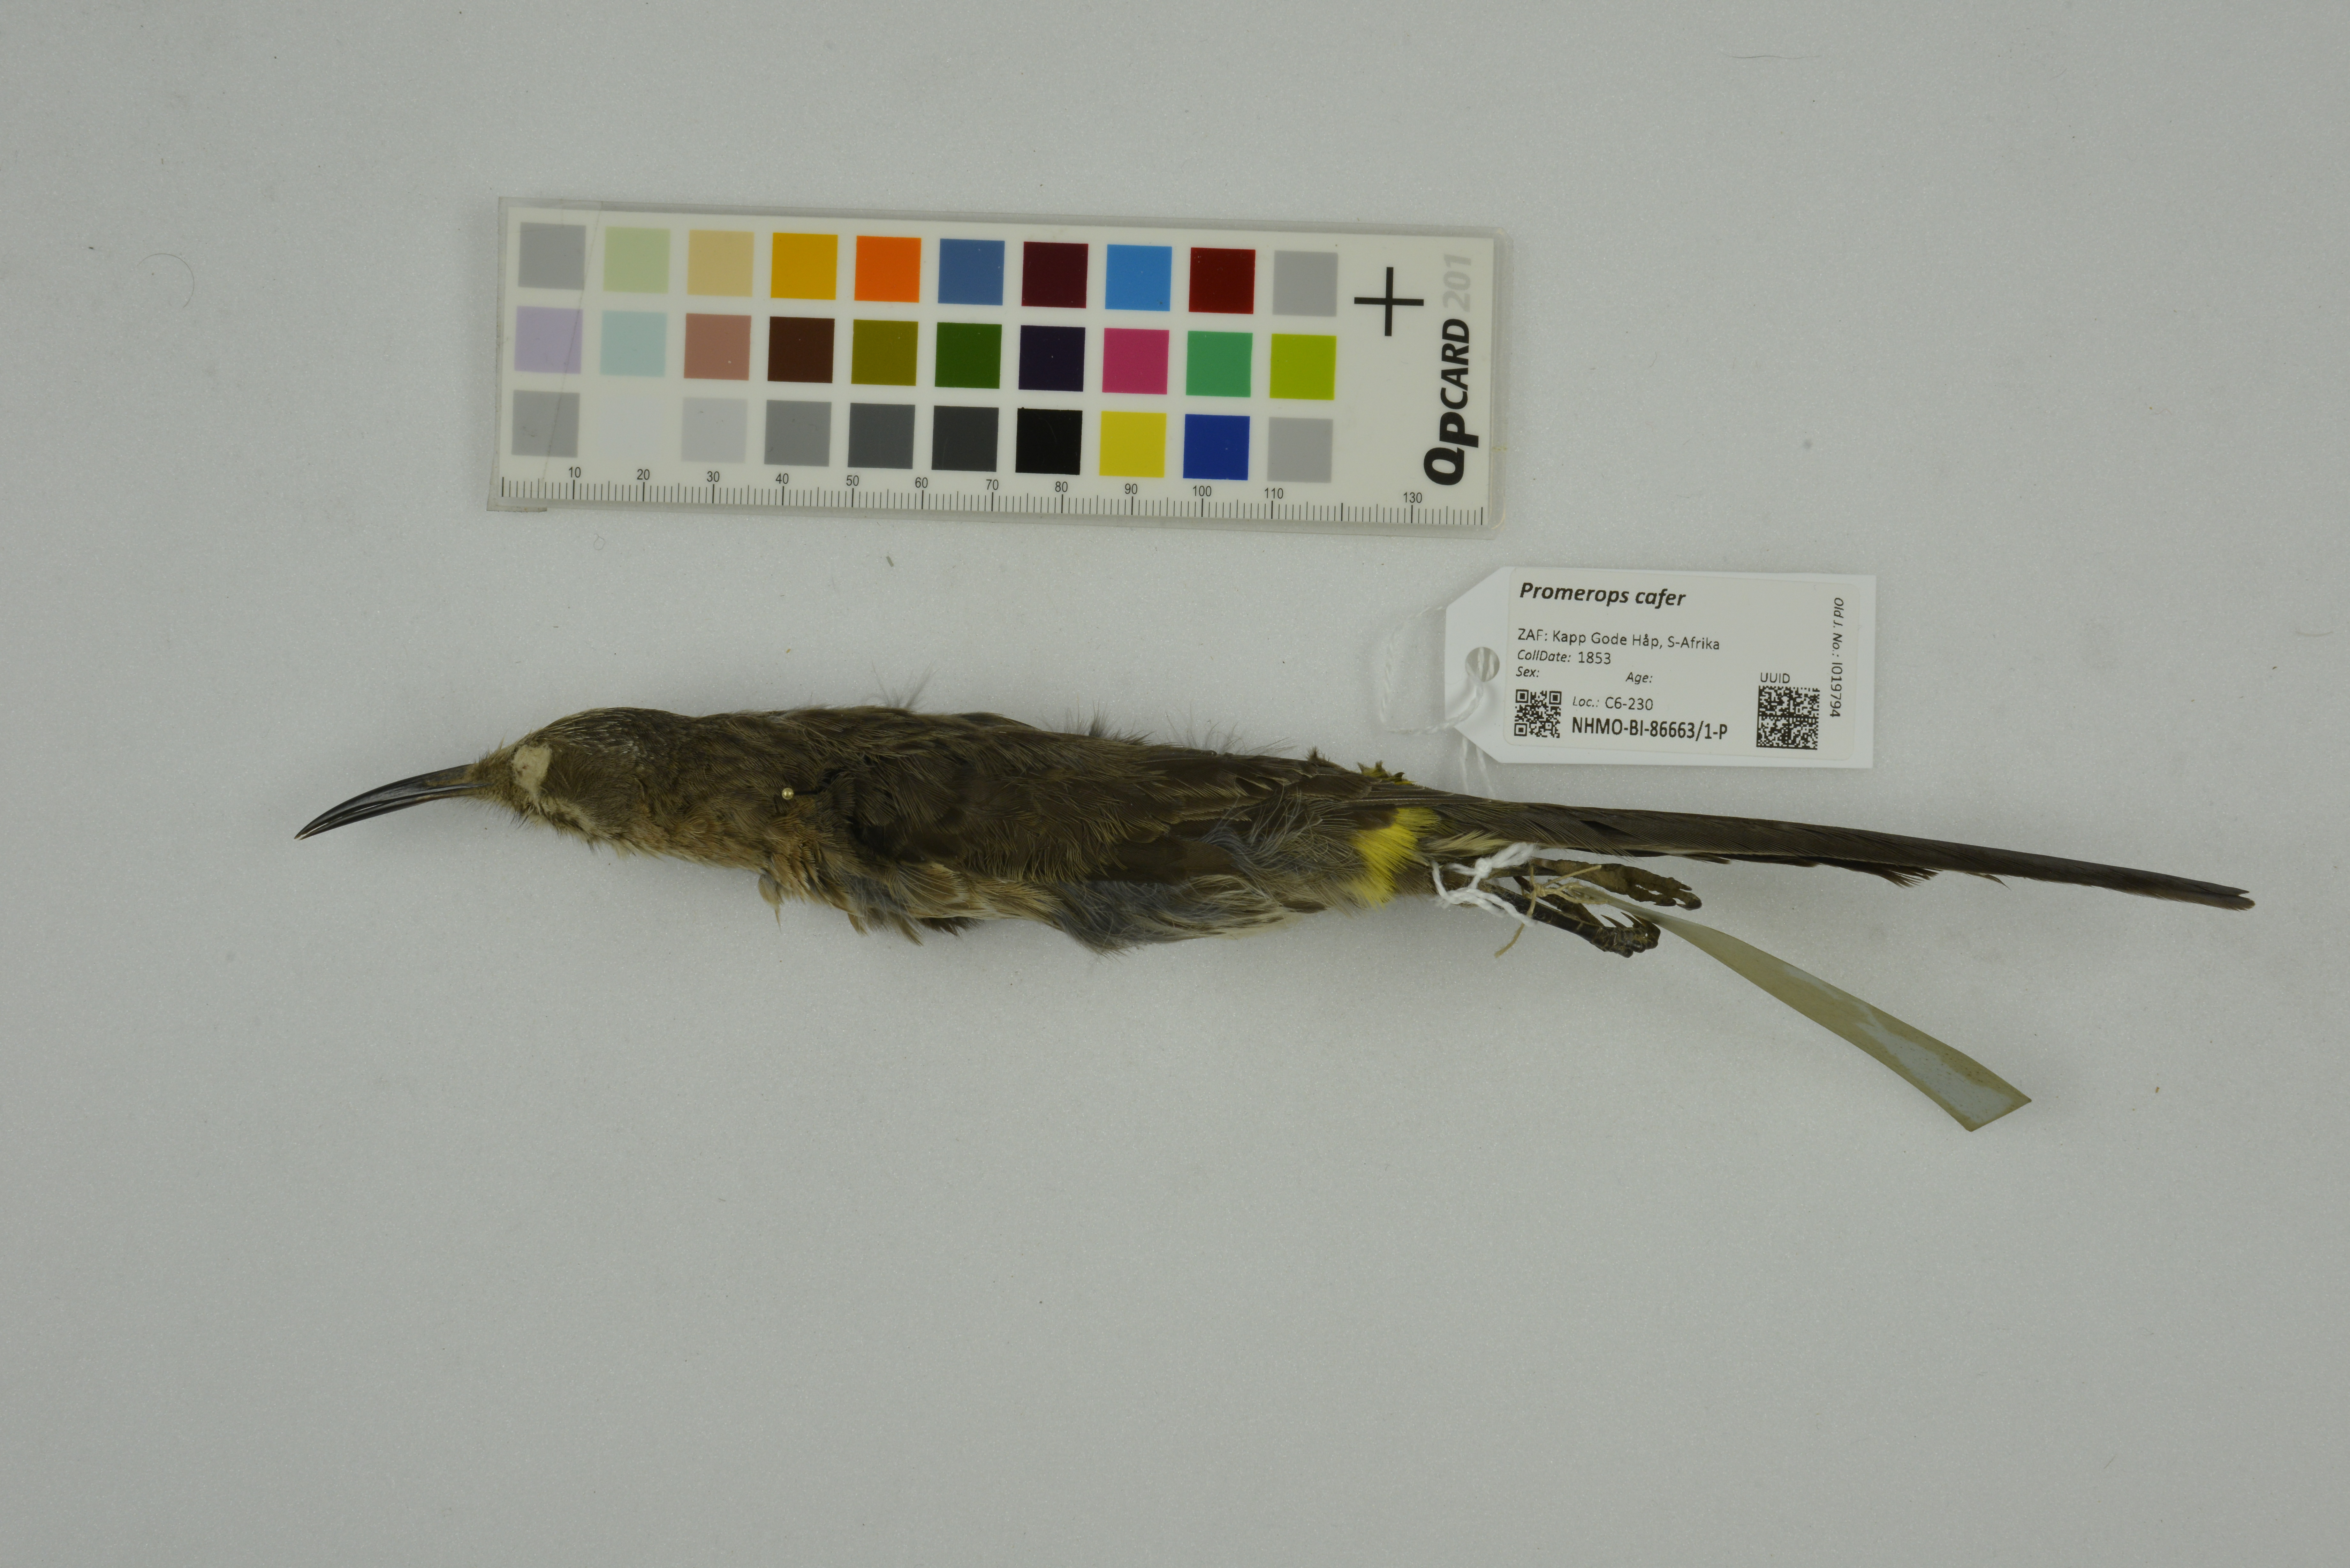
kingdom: Animalia
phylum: Chordata
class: Aves
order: Passeriformes
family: Promeropidae
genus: Promerops
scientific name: Promerops cafer
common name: Cape sugarbird
